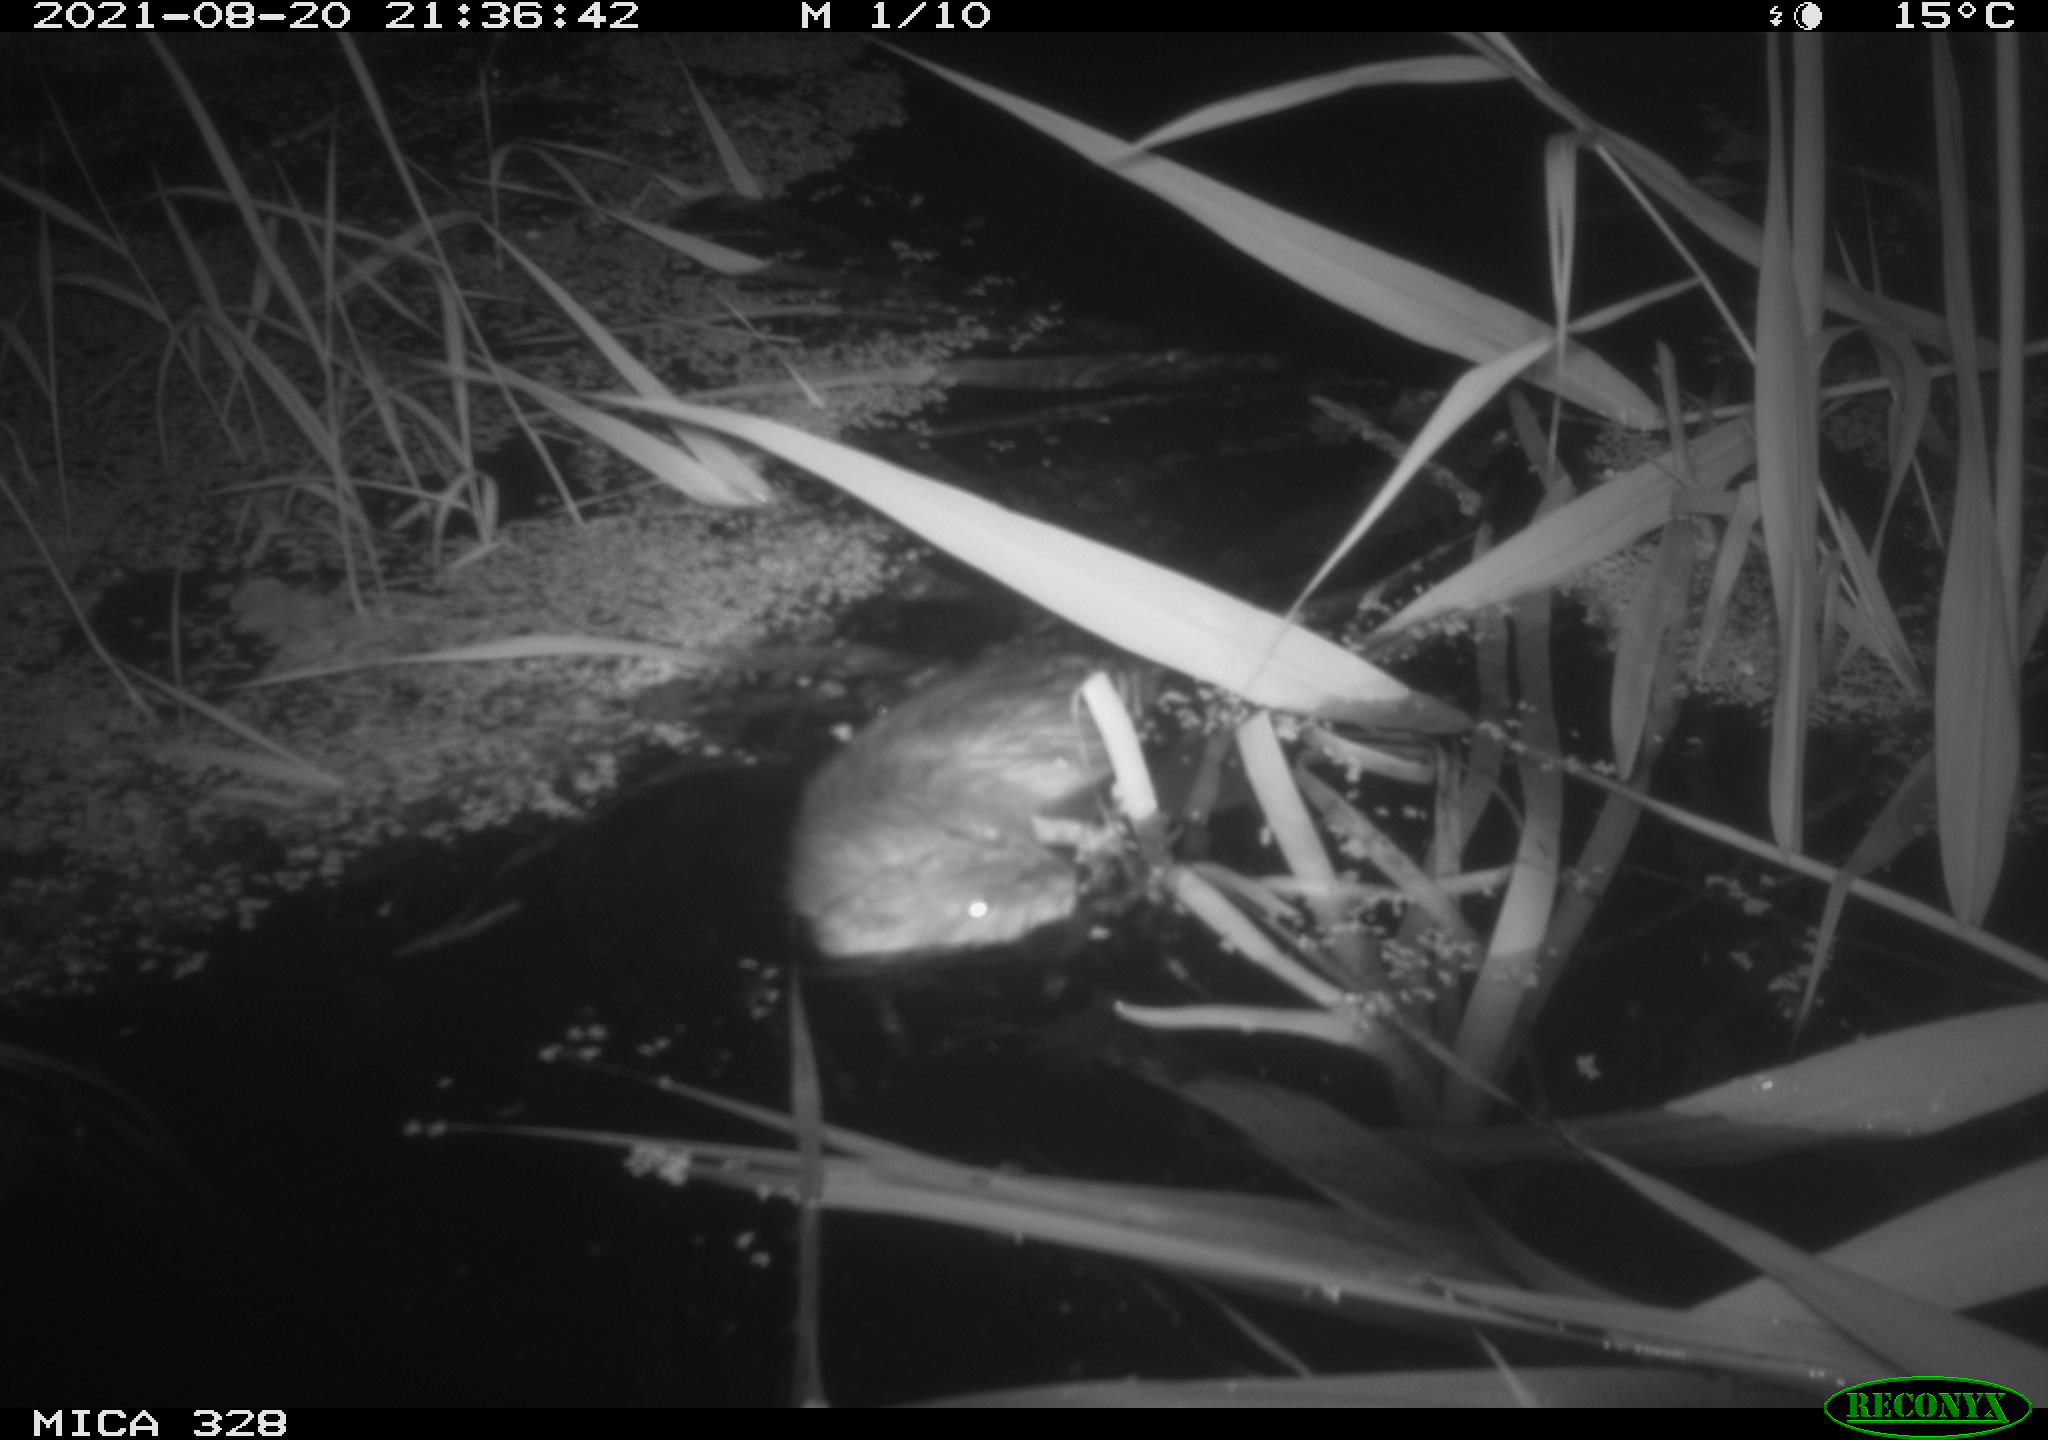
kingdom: Animalia
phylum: Chordata
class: Mammalia
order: Rodentia
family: Cricetidae
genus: Ondatra
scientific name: Ondatra zibethicus
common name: Muskrat
